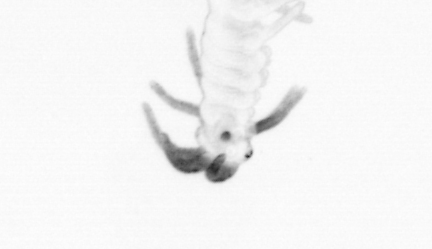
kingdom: Animalia
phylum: Annelida
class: Polychaeta
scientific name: Polychaeta
